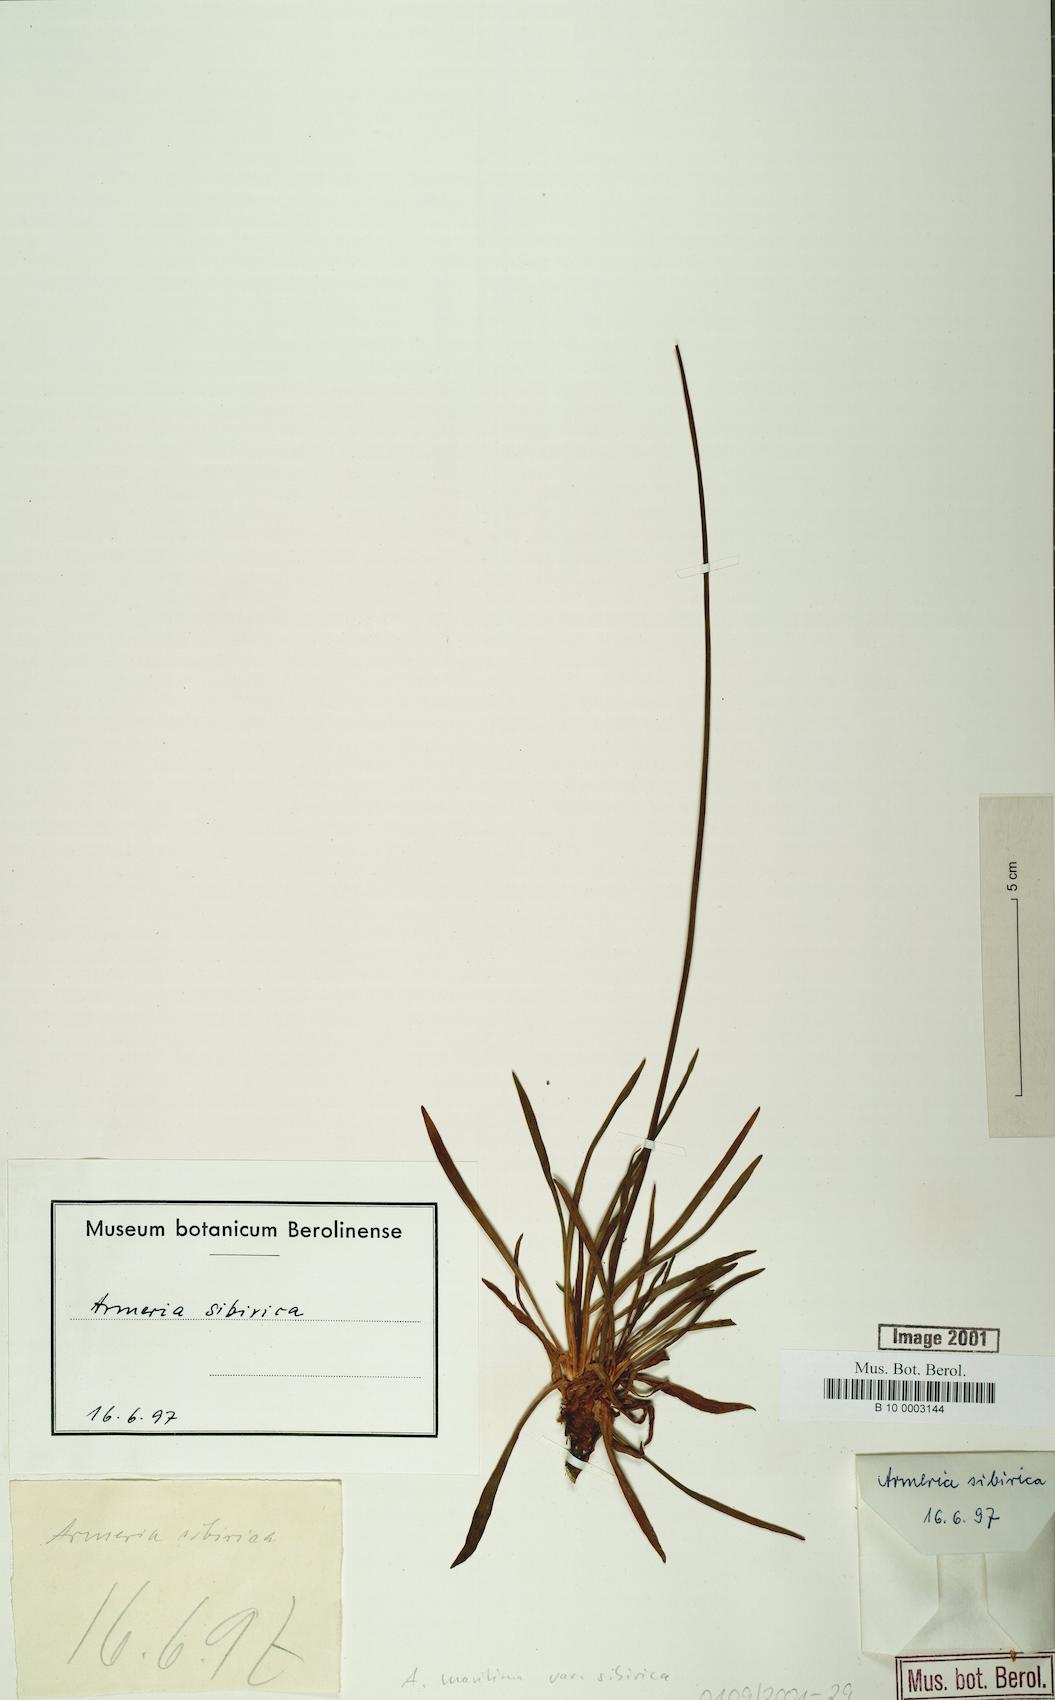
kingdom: Plantae
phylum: Tracheophyta
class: Magnoliopsida
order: Caryophyllales
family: Plumbaginaceae
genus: Armeria
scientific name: Armeria maritima
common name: Thrift
